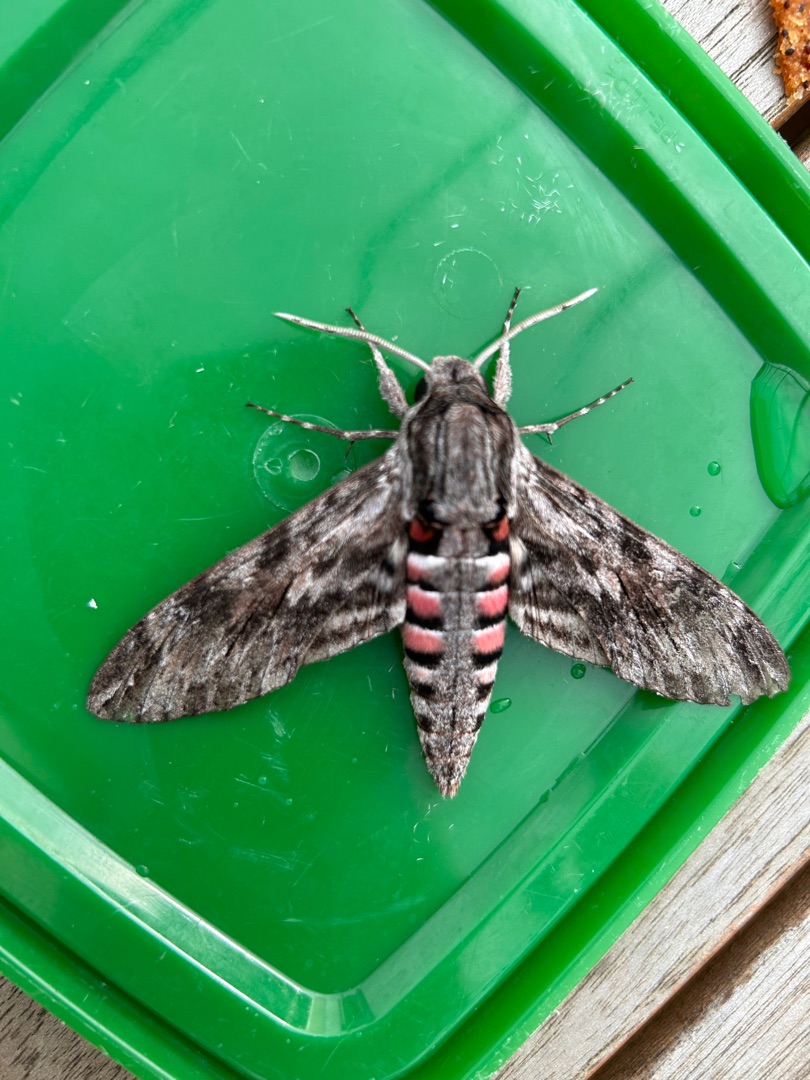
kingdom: Animalia
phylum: Arthropoda
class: Insecta
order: Lepidoptera
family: Sphingidae
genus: Agrius
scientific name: Agrius convolvuli
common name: Snerlesværmer
